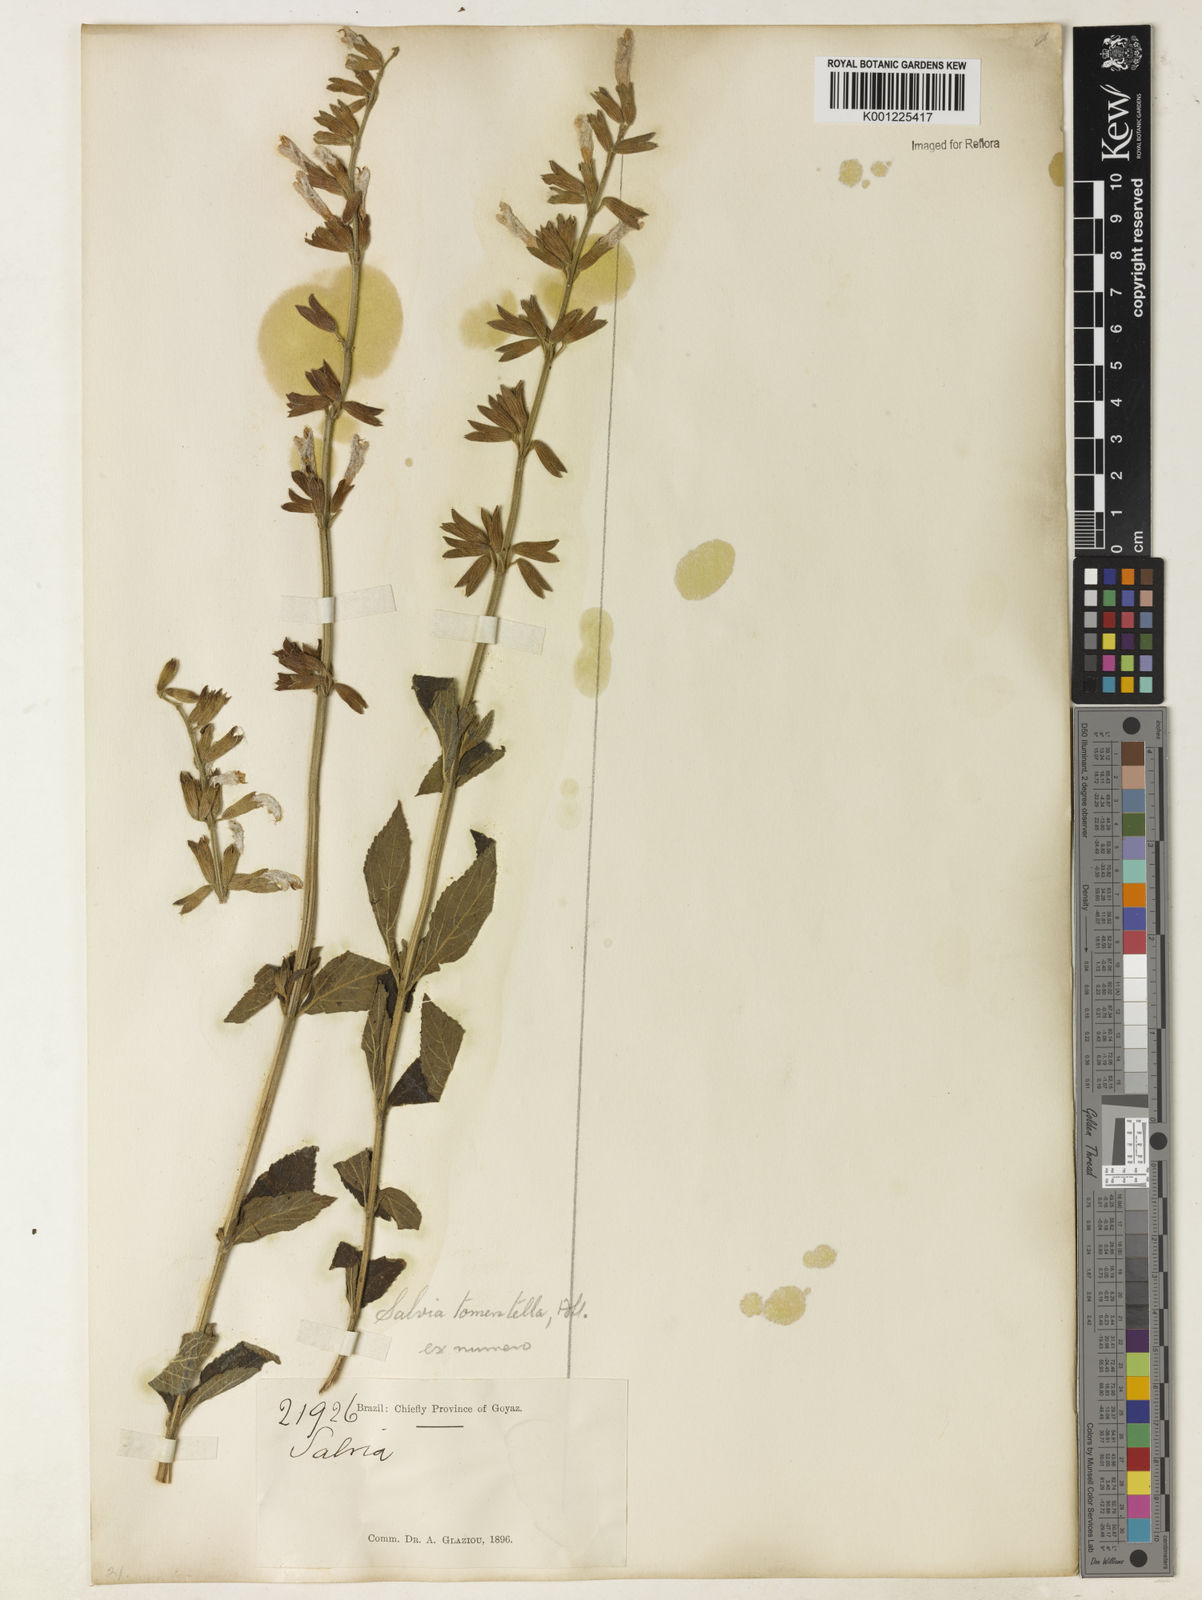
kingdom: Plantae
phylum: Tracheophyta
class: Magnoliopsida
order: Lamiales
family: Lamiaceae
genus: Salvia
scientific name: Salvia tomentella
